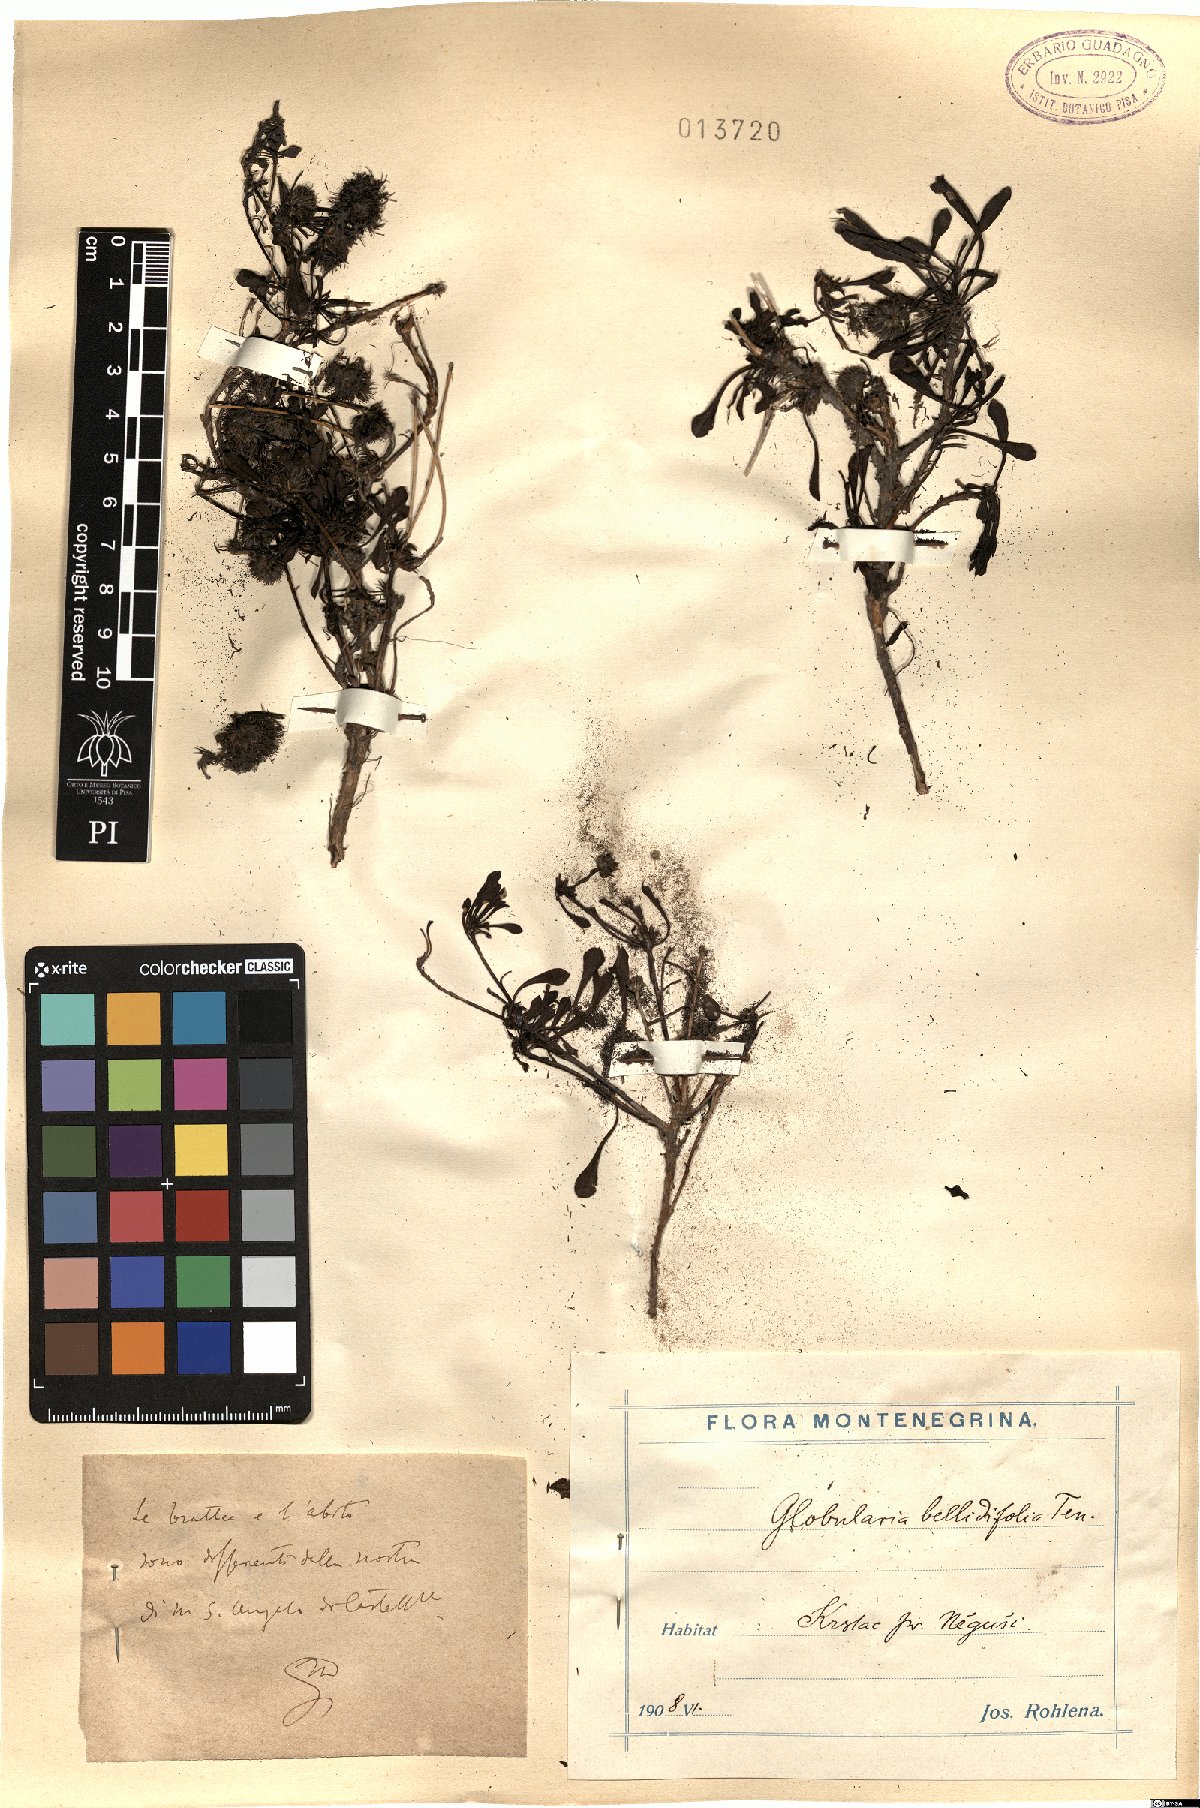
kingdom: Plantae
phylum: Tracheophyta
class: Magnoliopsida
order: Lamiales
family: Plantaginaceae
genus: Globularia
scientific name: Globularia meridionalis
